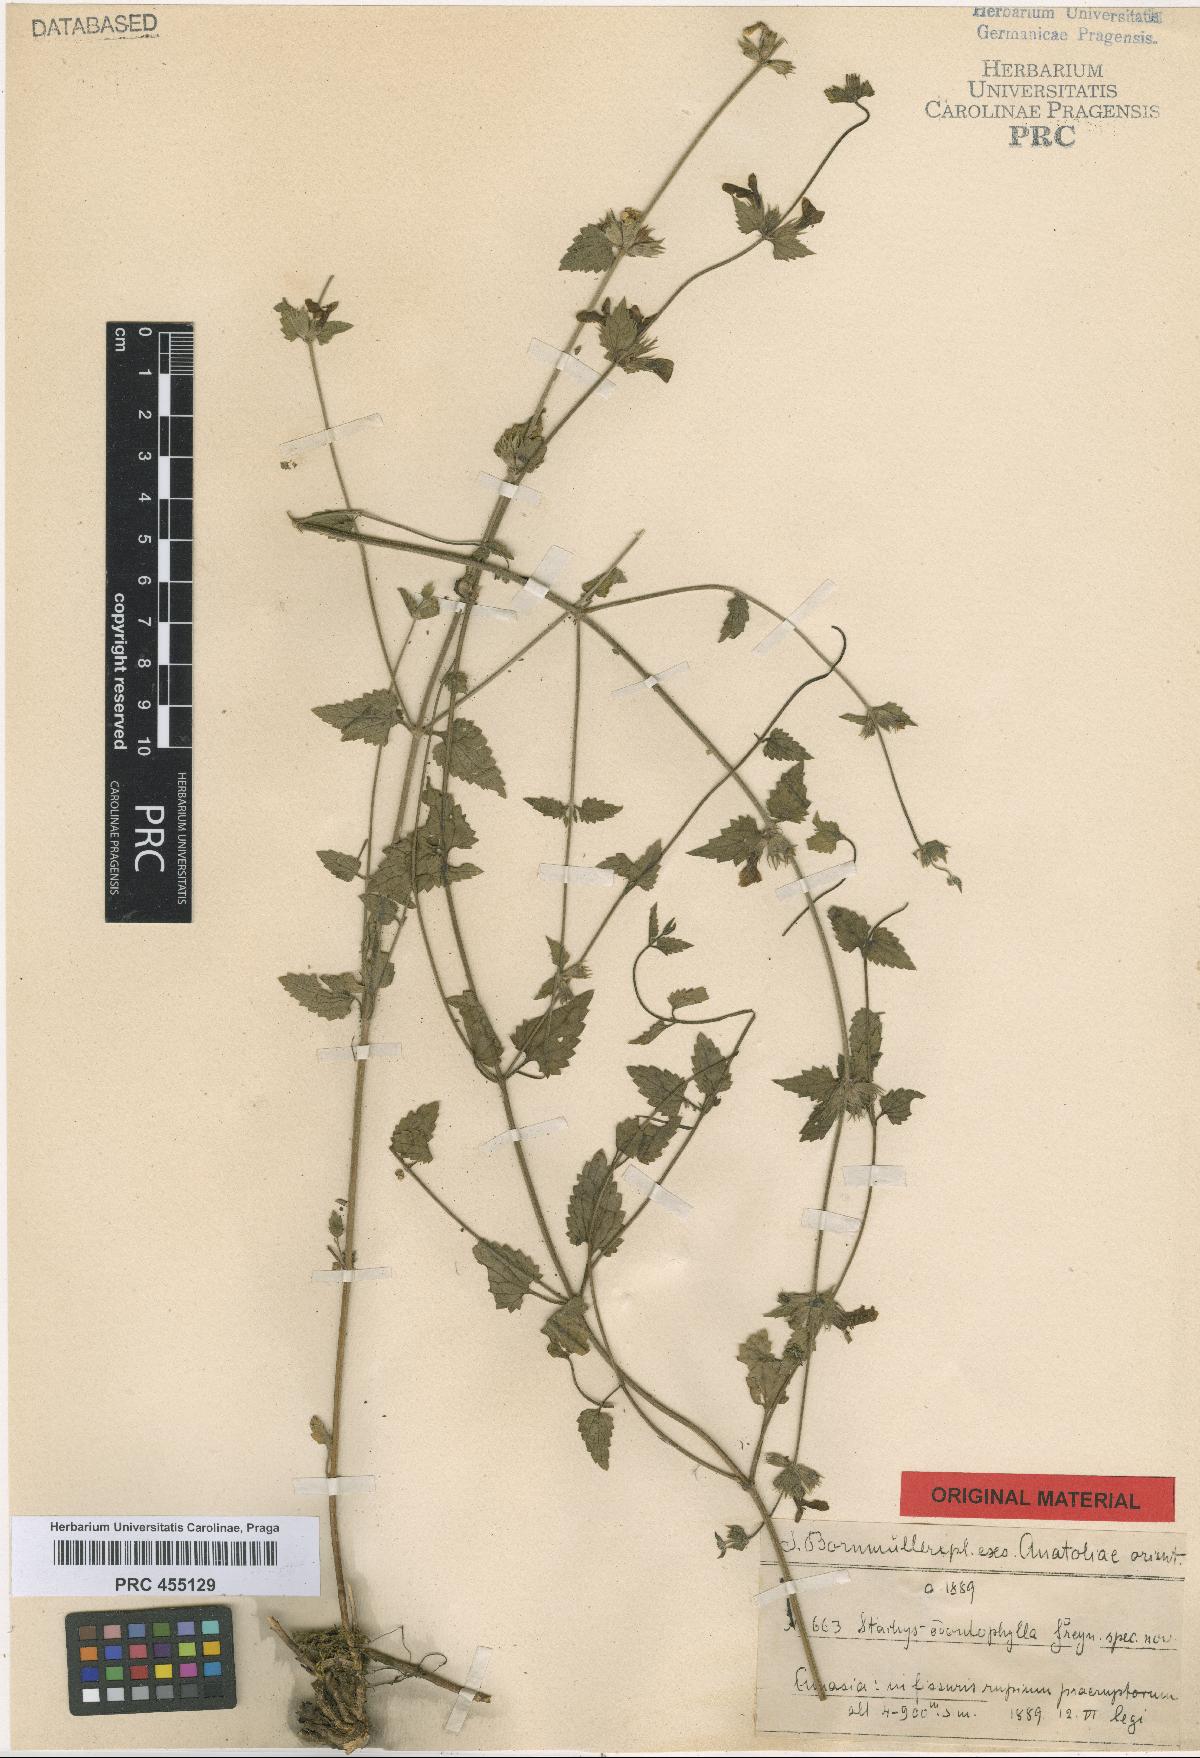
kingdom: Plantae
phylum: Tracheophyta
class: Magnoliopsida
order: Lamiales
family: Lamiaceae
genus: Stachys
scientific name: Stachys viscosa
